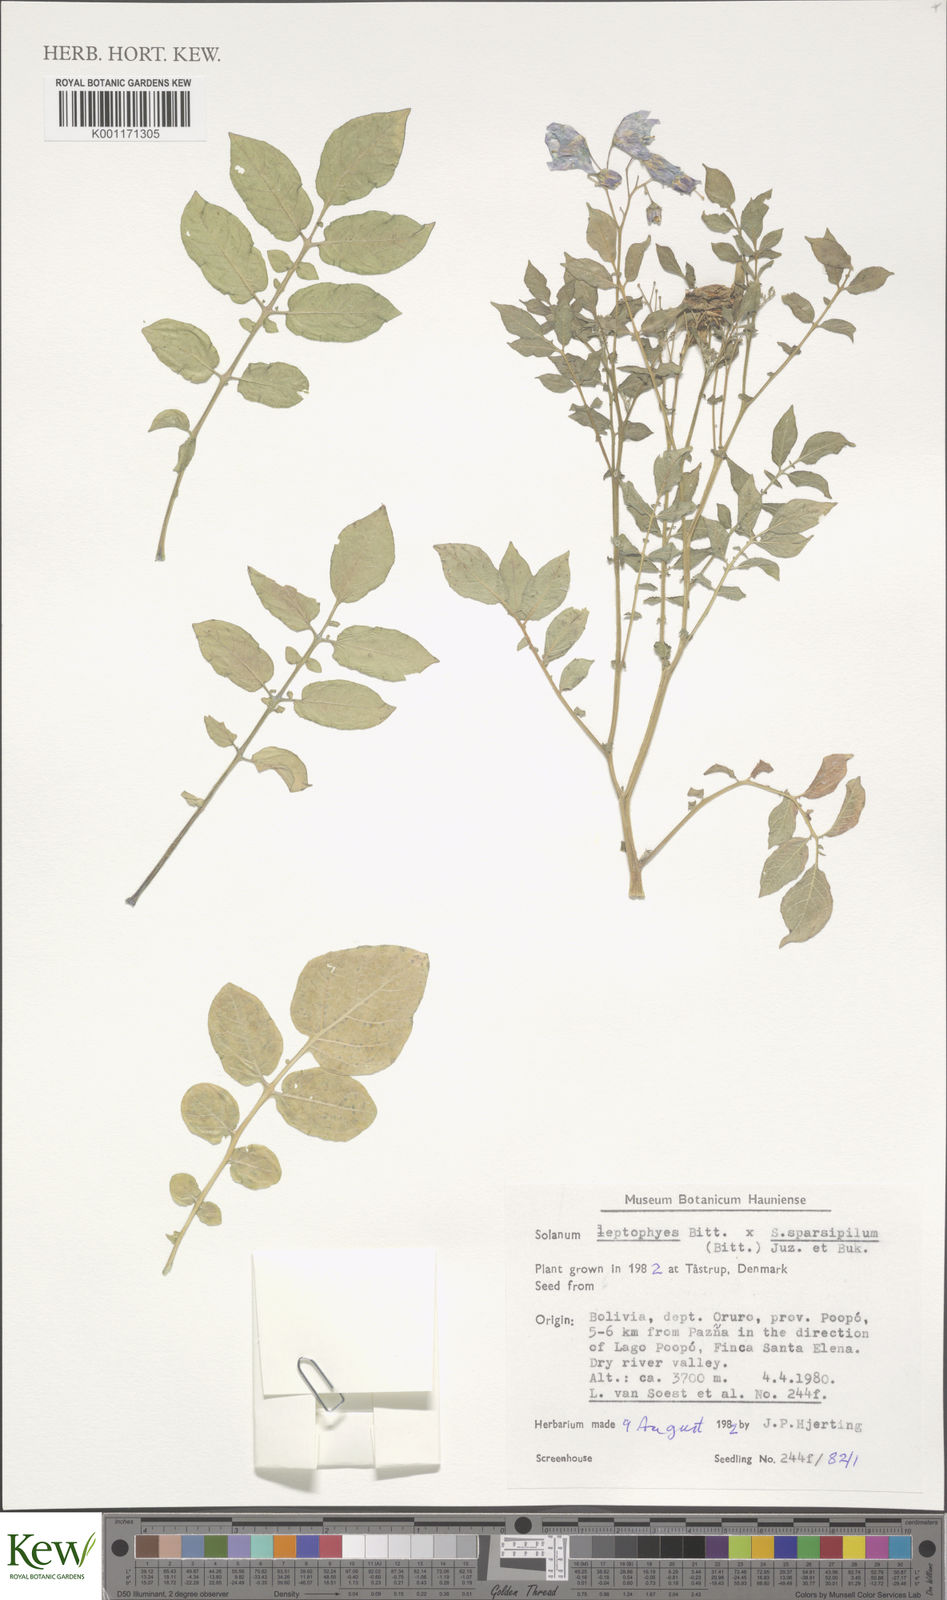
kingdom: Plantae
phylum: Tracheophyta
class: Magnoliopsida
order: Solanales
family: Solanaceae
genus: Solanum
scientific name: Solanum brevicaule
